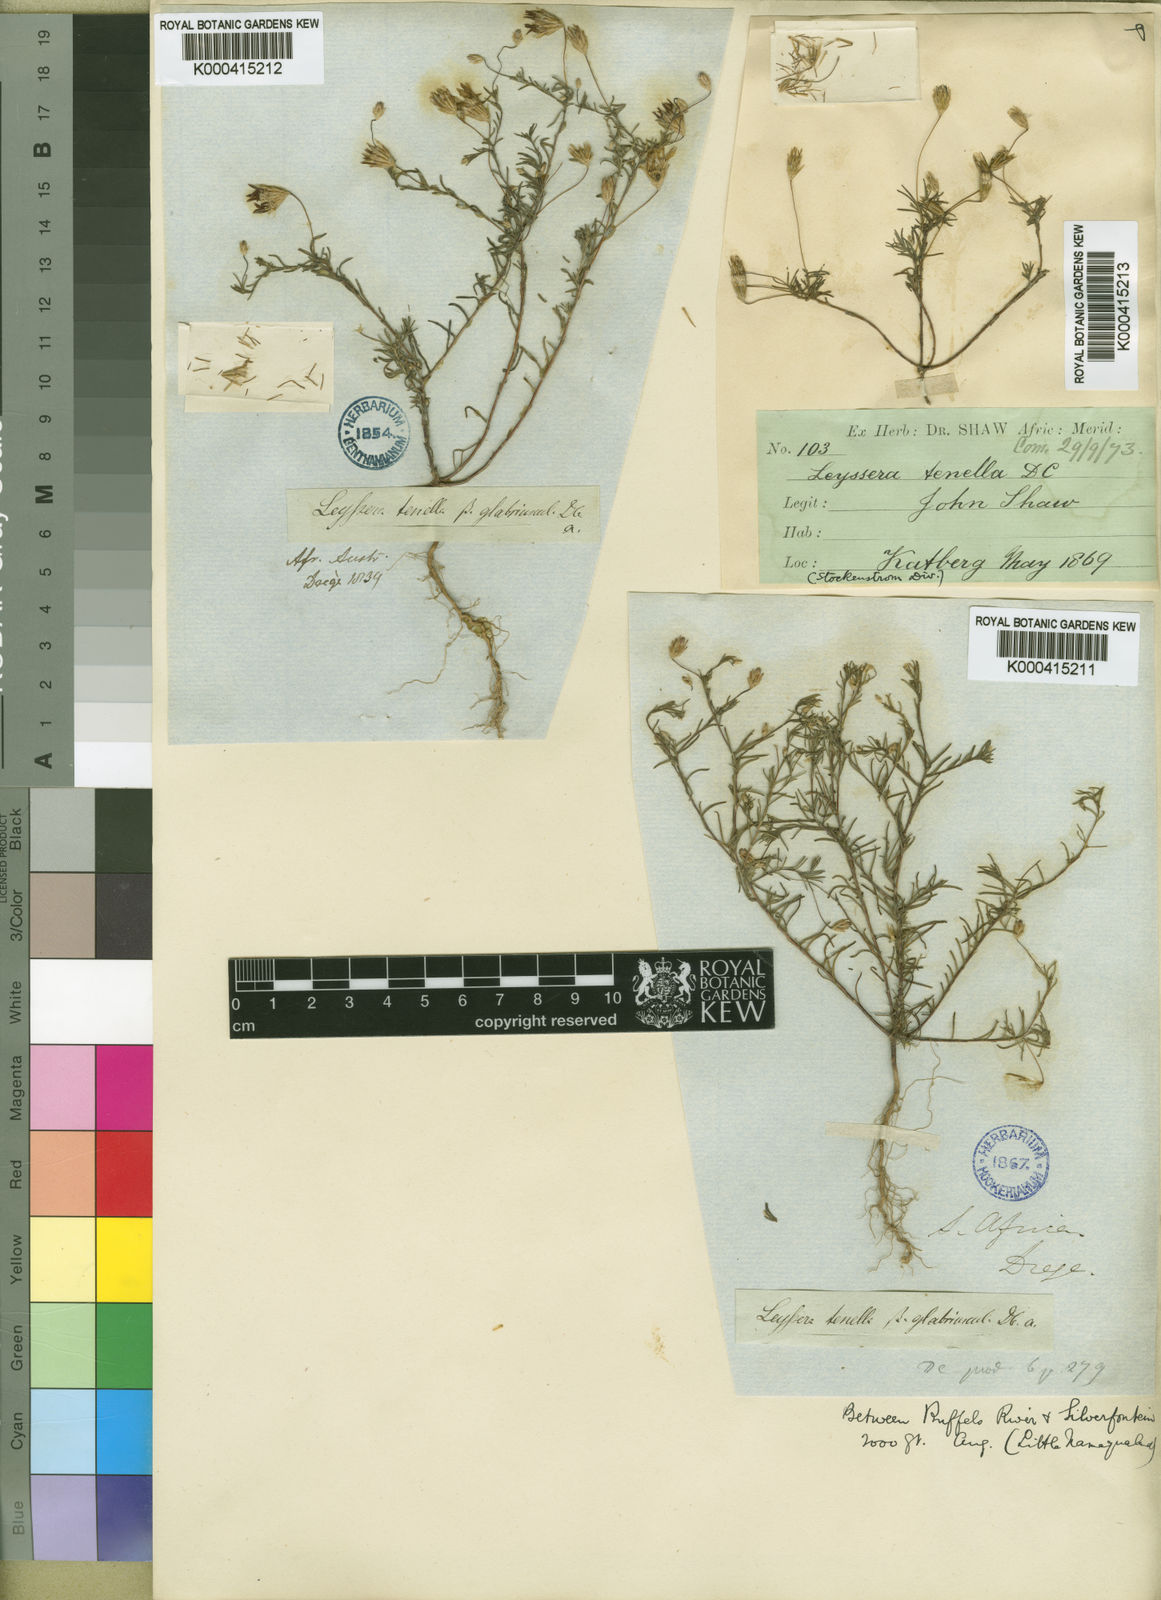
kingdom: Plantae
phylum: Tracheophyta
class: Magnoliopsida
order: Asterales
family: Asteraceae
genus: Leysera
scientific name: Leysera tenella
